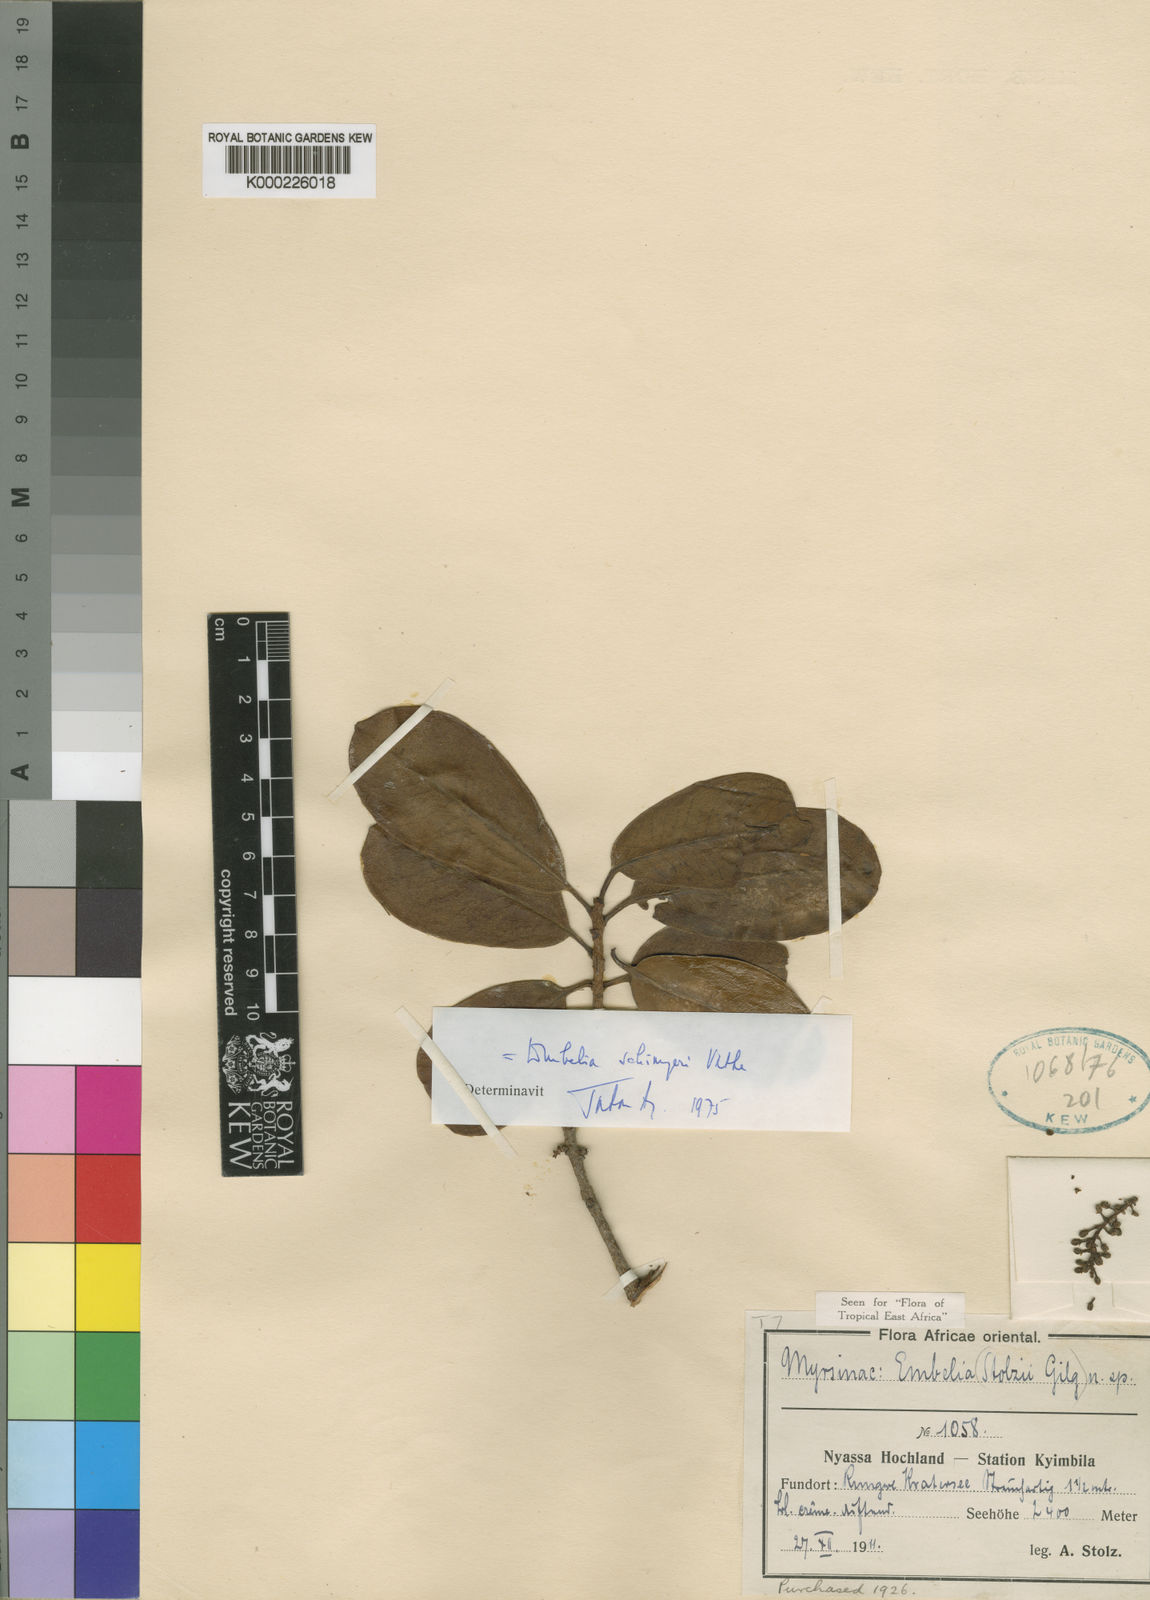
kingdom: Plantae
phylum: Tracheophyta
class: Magnoliopsida
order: Ericales
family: Primulaceae
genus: Embelia
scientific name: Embelia schimperi
